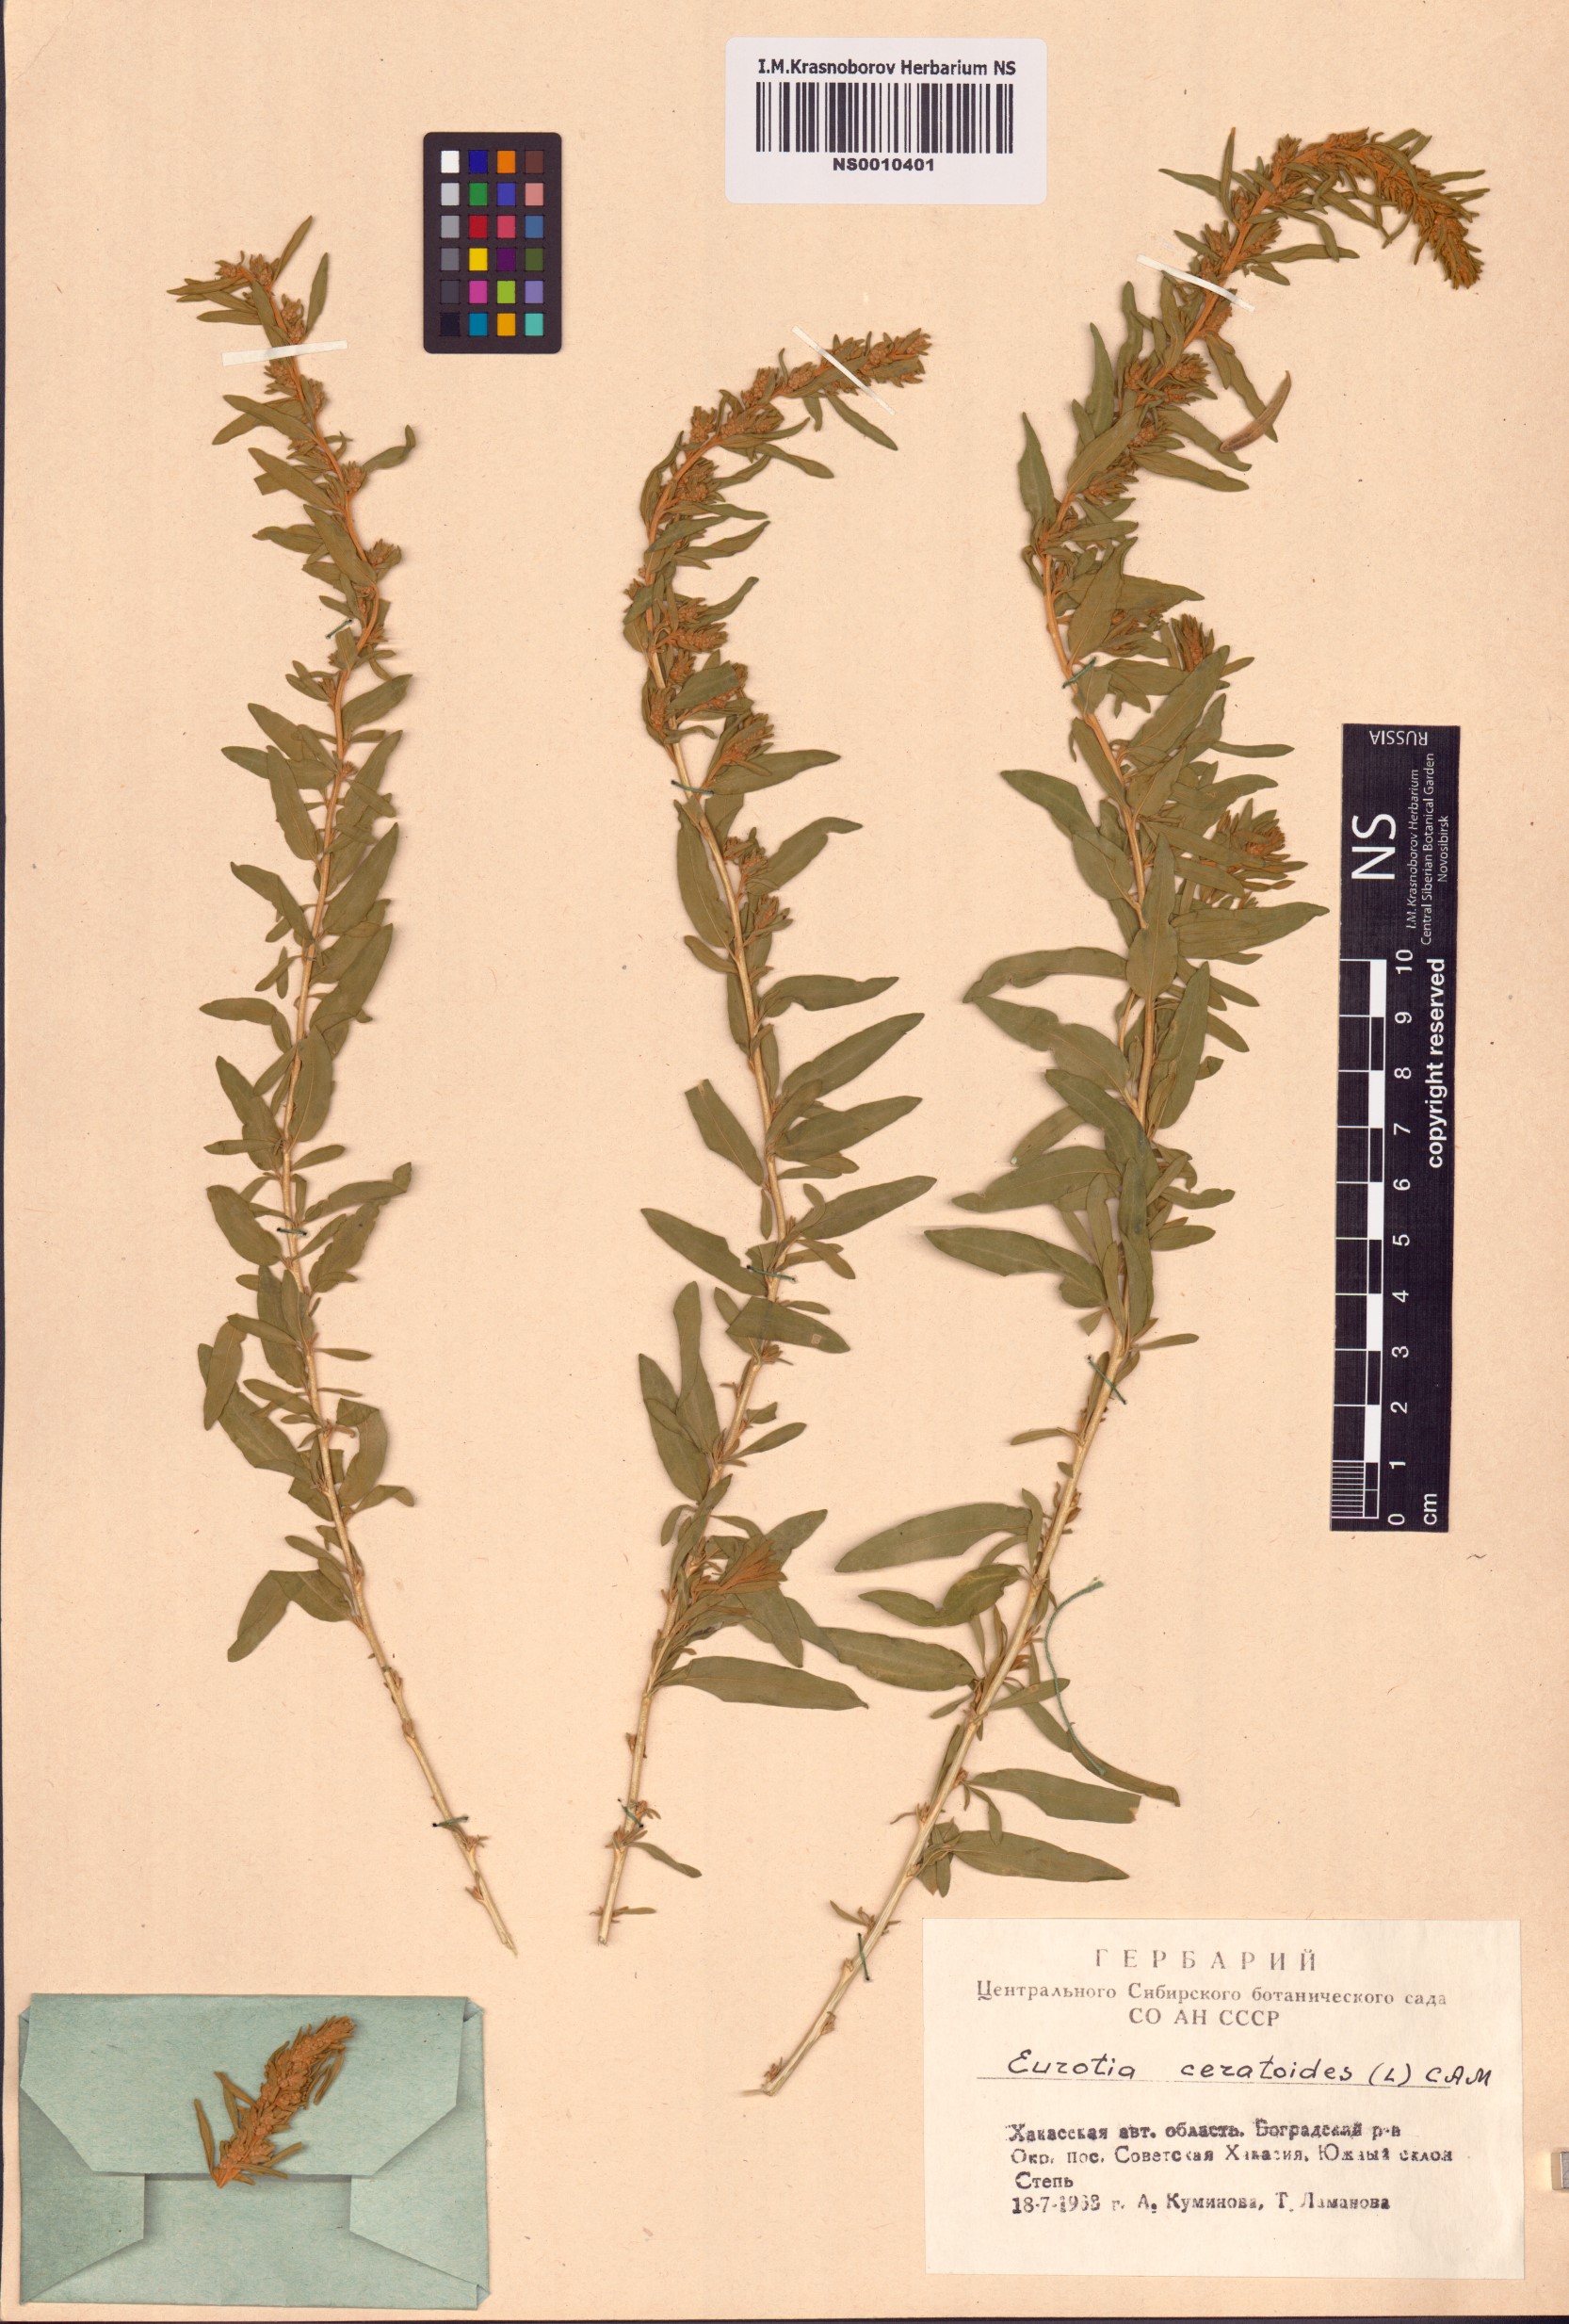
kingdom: Plantae
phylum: Tracheophyta
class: Magnoliopsida
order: Caryophyllales
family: Amaranthaceae
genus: Krascheninnikovia
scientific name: Krascheninnikovia ceratoides
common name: Pamirian winterfat
